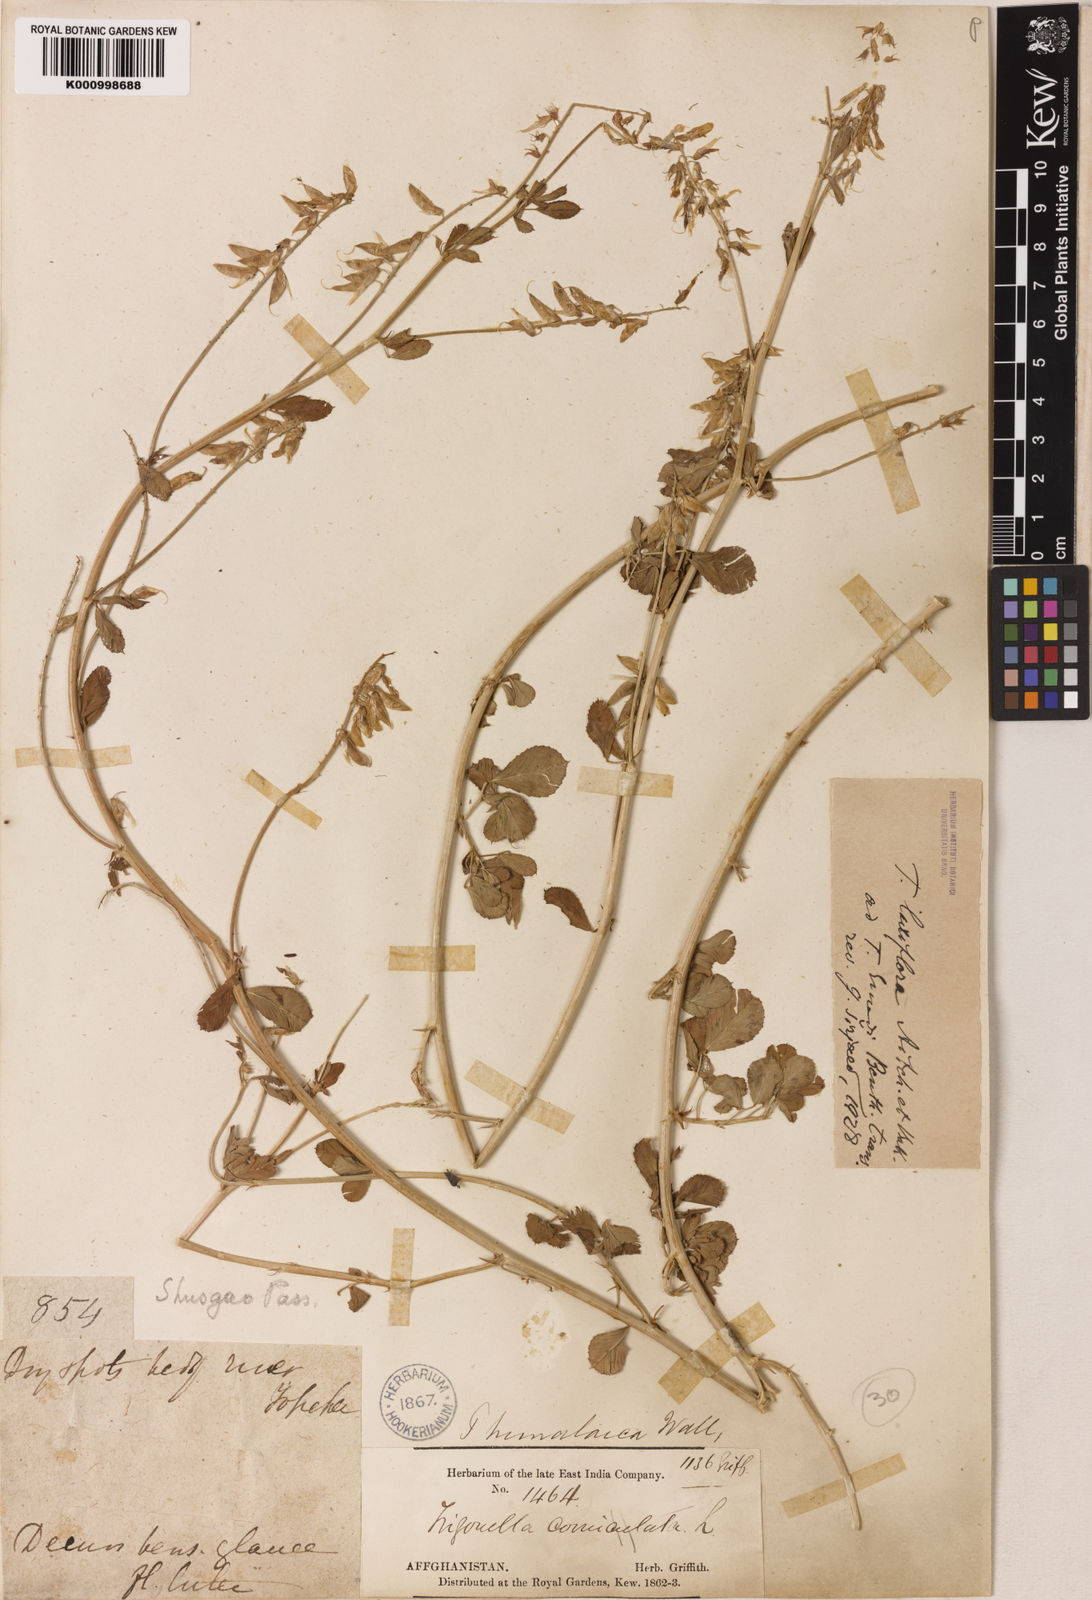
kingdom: Plantae
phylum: Tracheophyta
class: Magnoliopsida
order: Fabales
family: Fabaceae
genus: Trigonella
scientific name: Trigonella laxiflora
